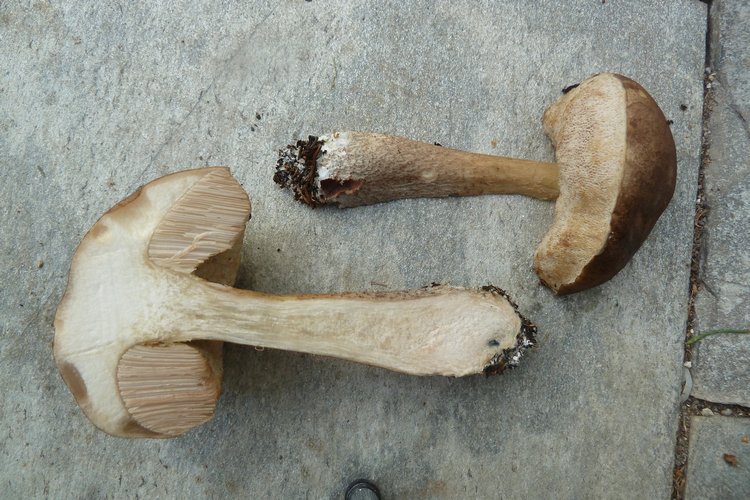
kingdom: Fungi
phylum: Basidiomycota
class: Agaricomycetes
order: Boletales
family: Boletaceae
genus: Leccinum
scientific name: Leccinum cyaneobasileucum
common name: almindelig skælrørhat
